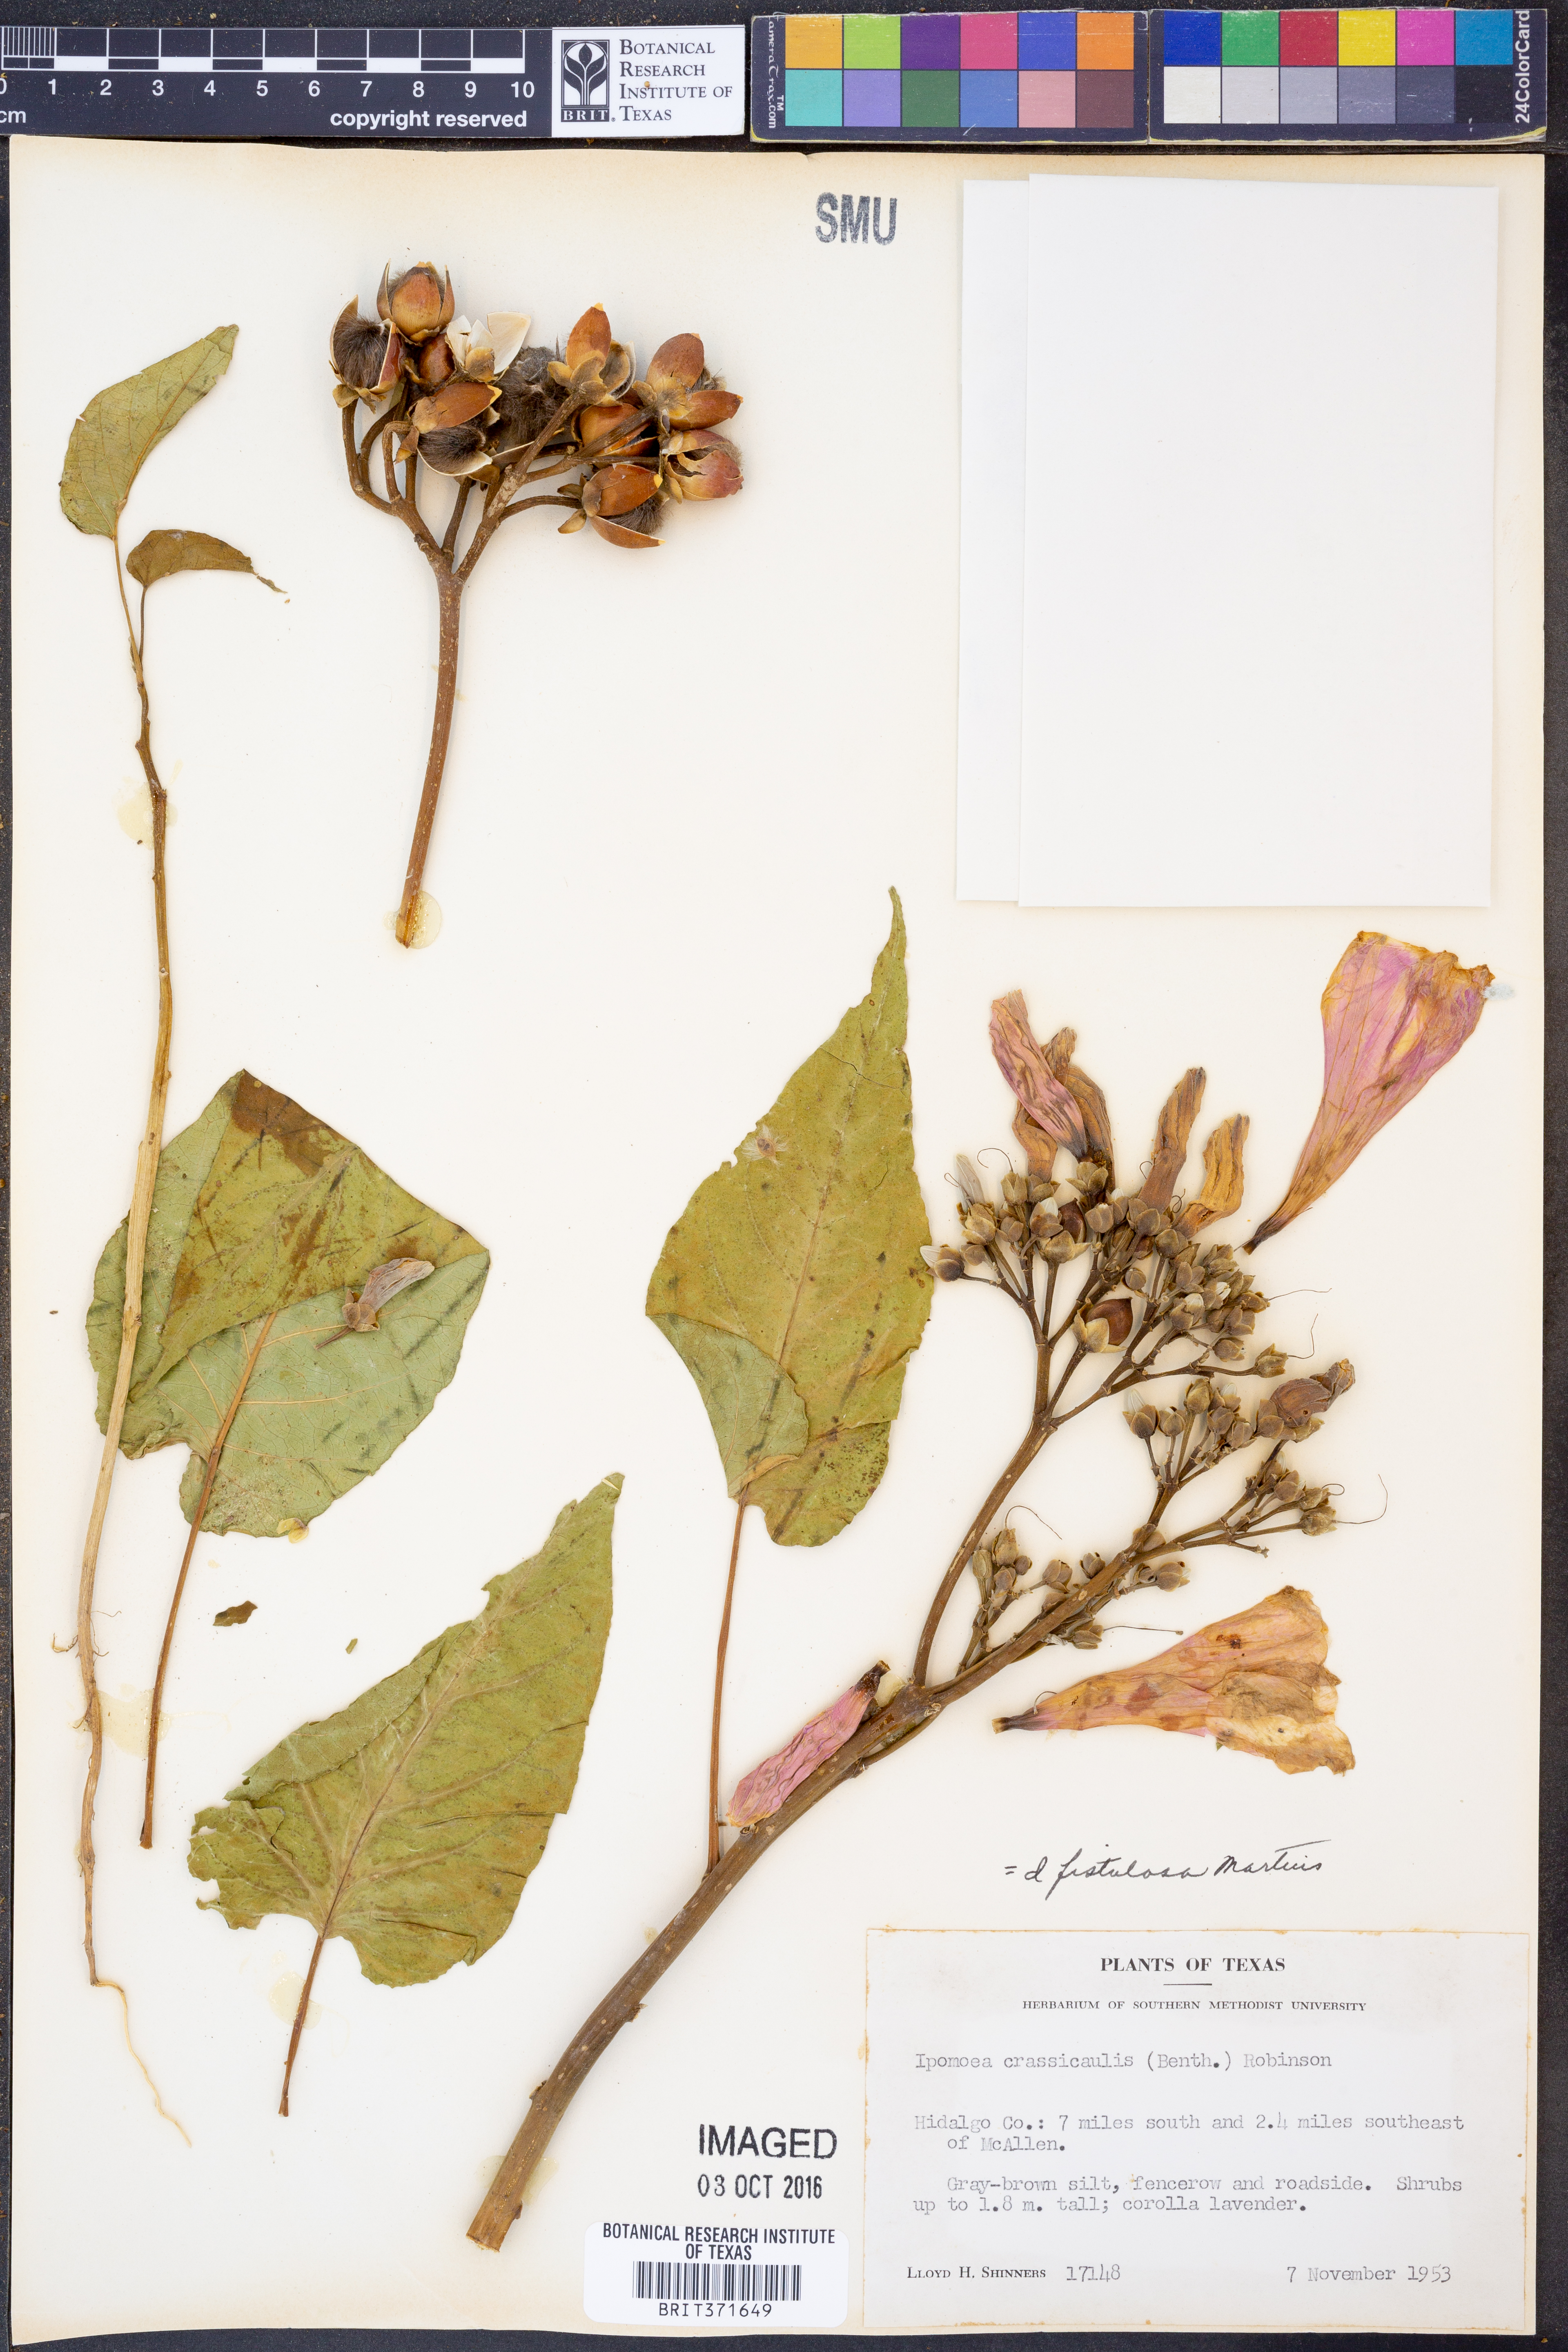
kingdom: Plantae
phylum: Tracheophyta
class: Magnoliopsida
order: Solanales
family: Convolvulaceae
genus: Ipomoea
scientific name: Ipomoea carnea
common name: Morning-glory
